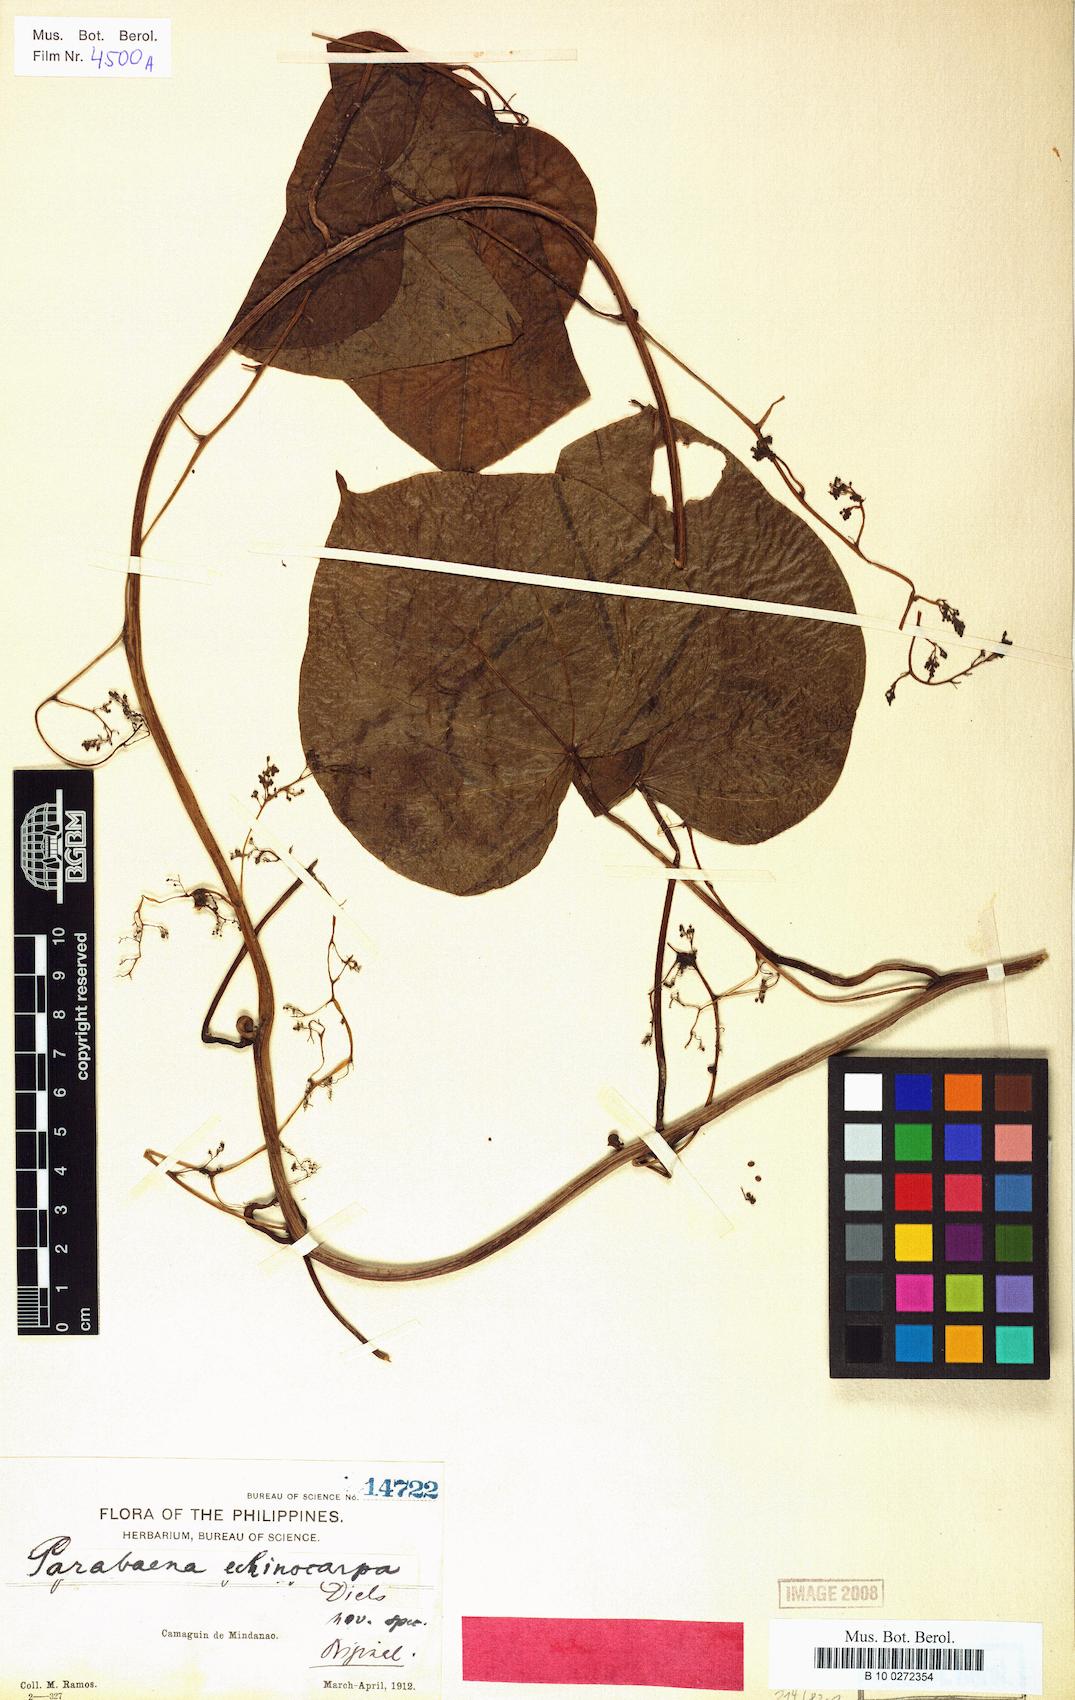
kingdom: Plantae
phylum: Tracheophyta
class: Magnoliopsida
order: Ranunculales
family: Menispermaceae
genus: Parabaena
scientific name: Parabaena echinocarpa
